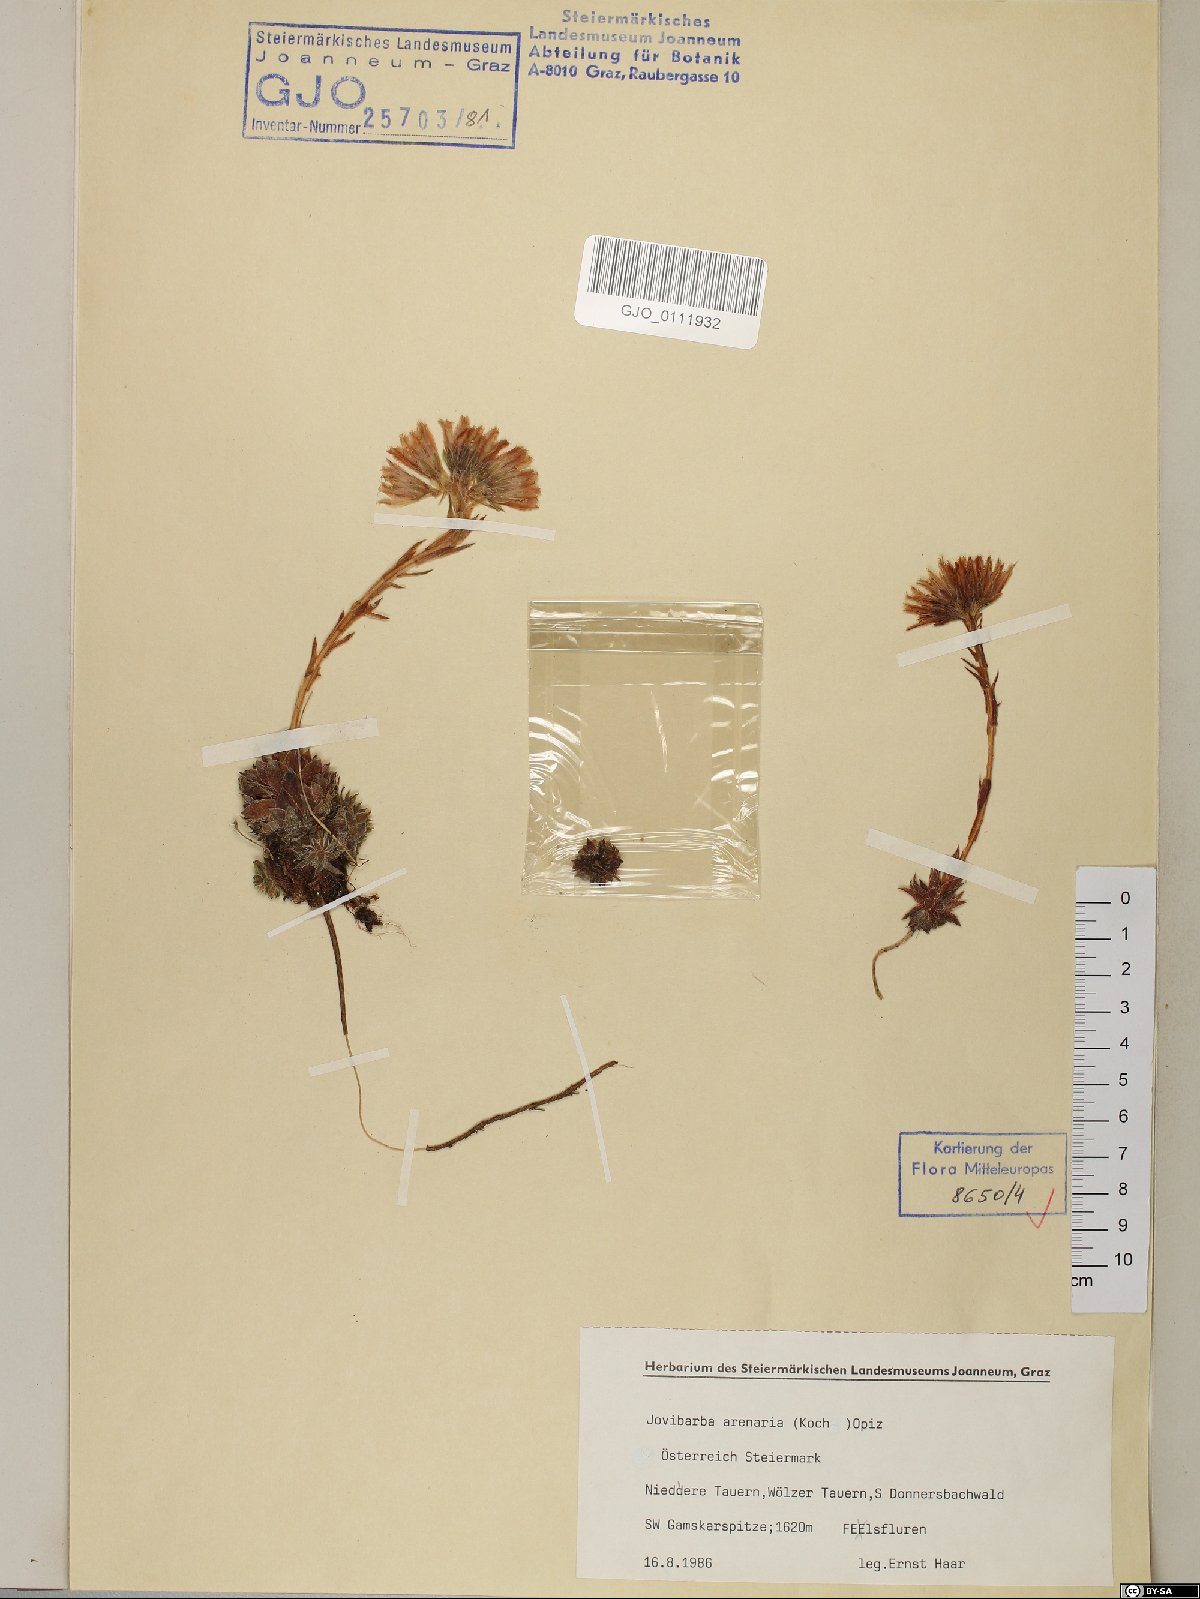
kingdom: Plantae
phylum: Tracheophyta
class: Magnoliopsida
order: Saxifragales
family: Crassulaceae
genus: Sempervivum
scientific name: Sempervivum globiferum
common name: Rolling hen-and-chicks
